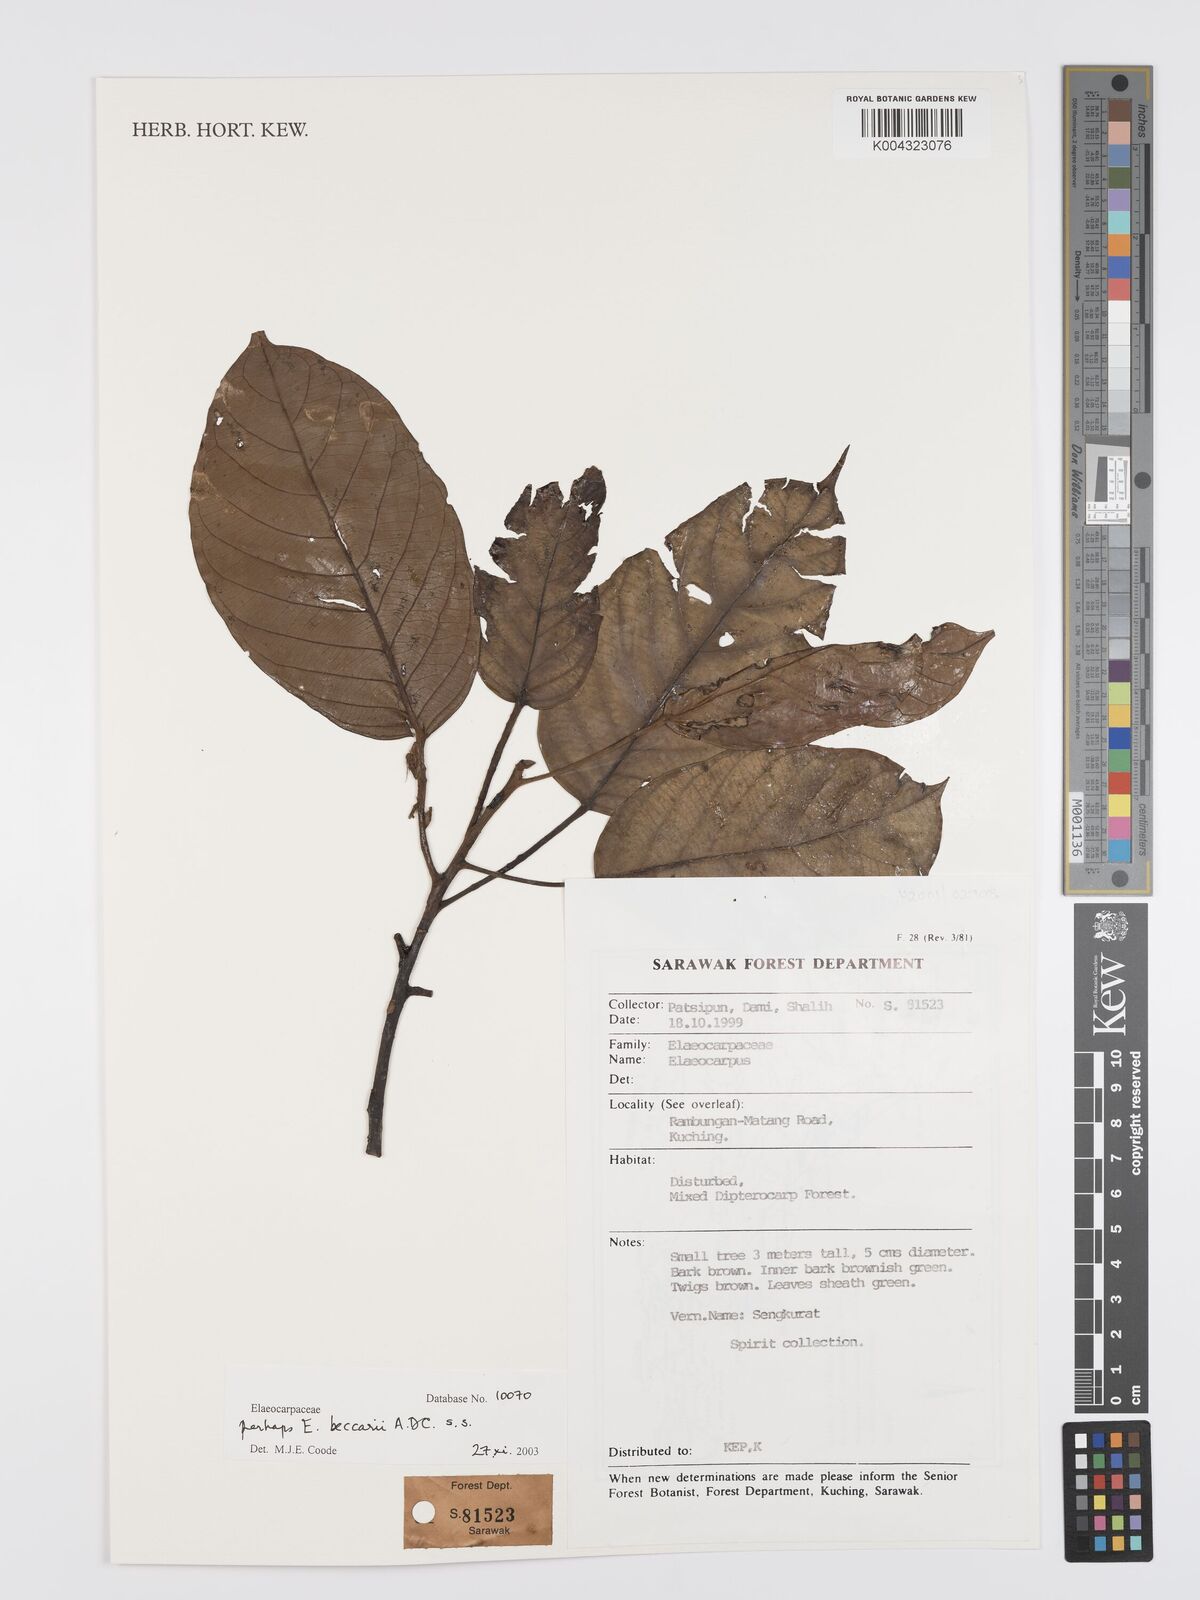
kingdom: Plantae
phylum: Tracheophyta
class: Magnoliopsida
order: Oxalidales
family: Elaeocarpaceae
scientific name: Elaeocarpaceae
